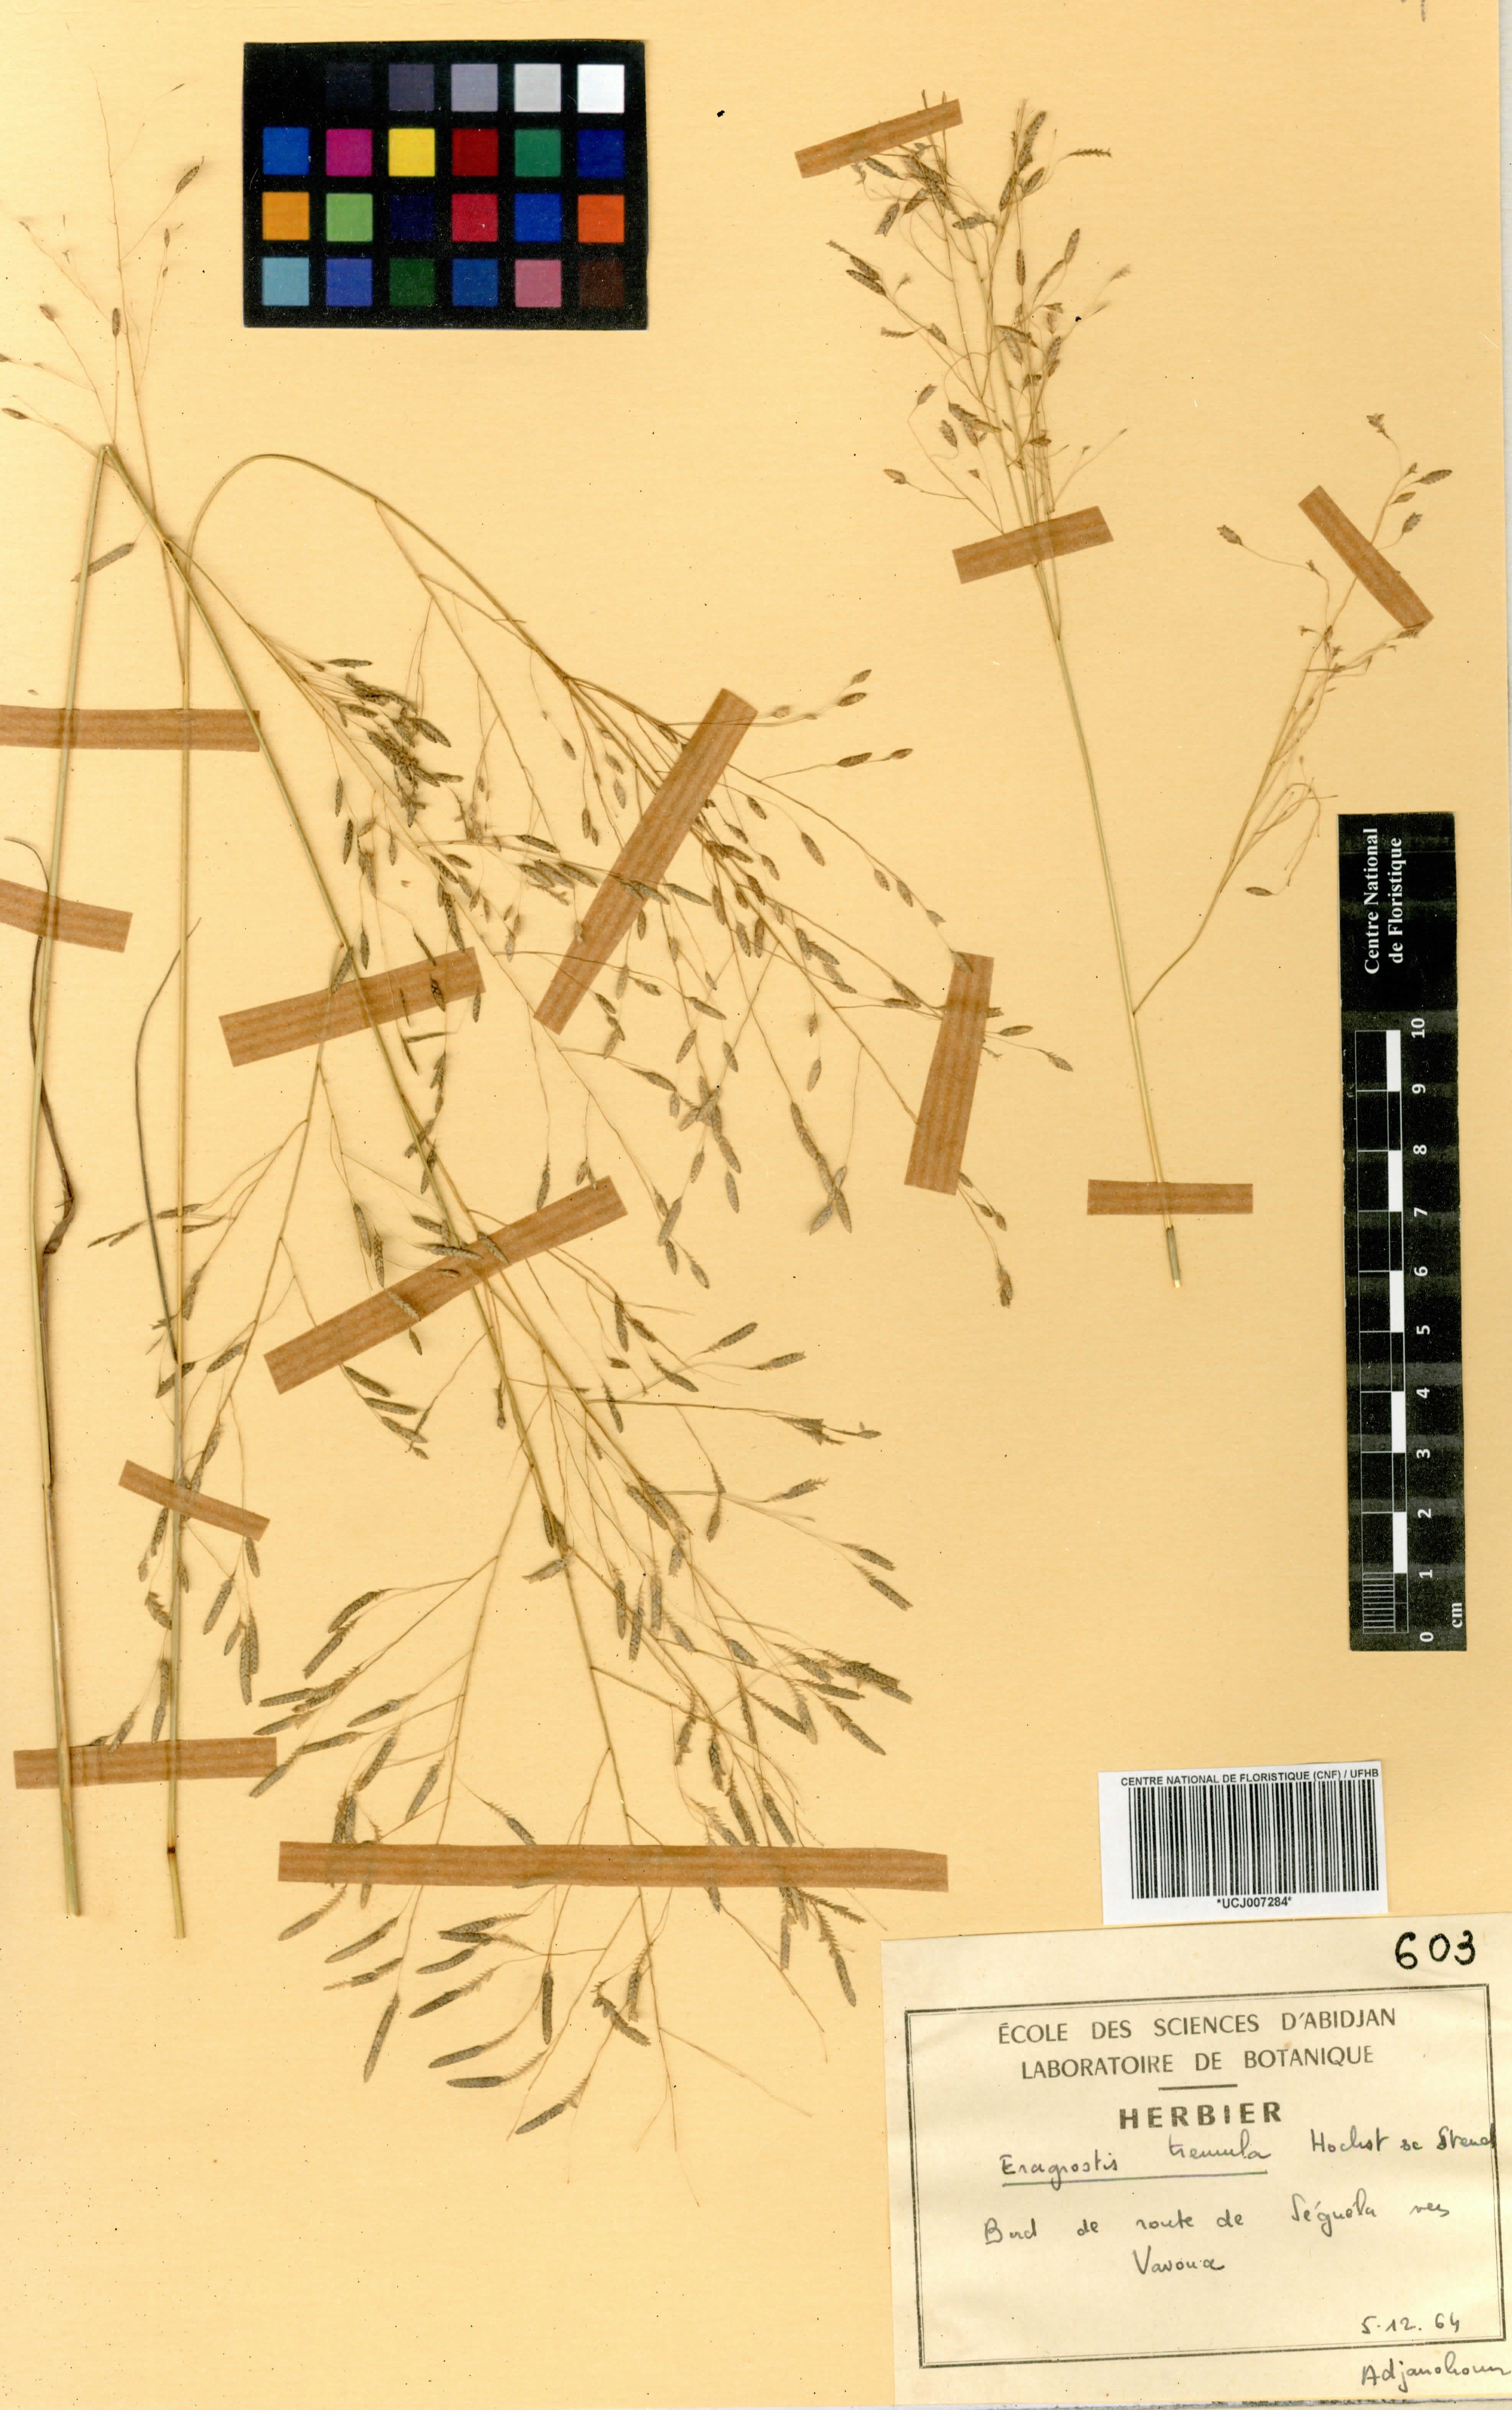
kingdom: Plantae
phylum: Tracheophyta
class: Liliopsida
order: Poales
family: Poaceae
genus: Eragrostis
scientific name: Eragrostis tremula
